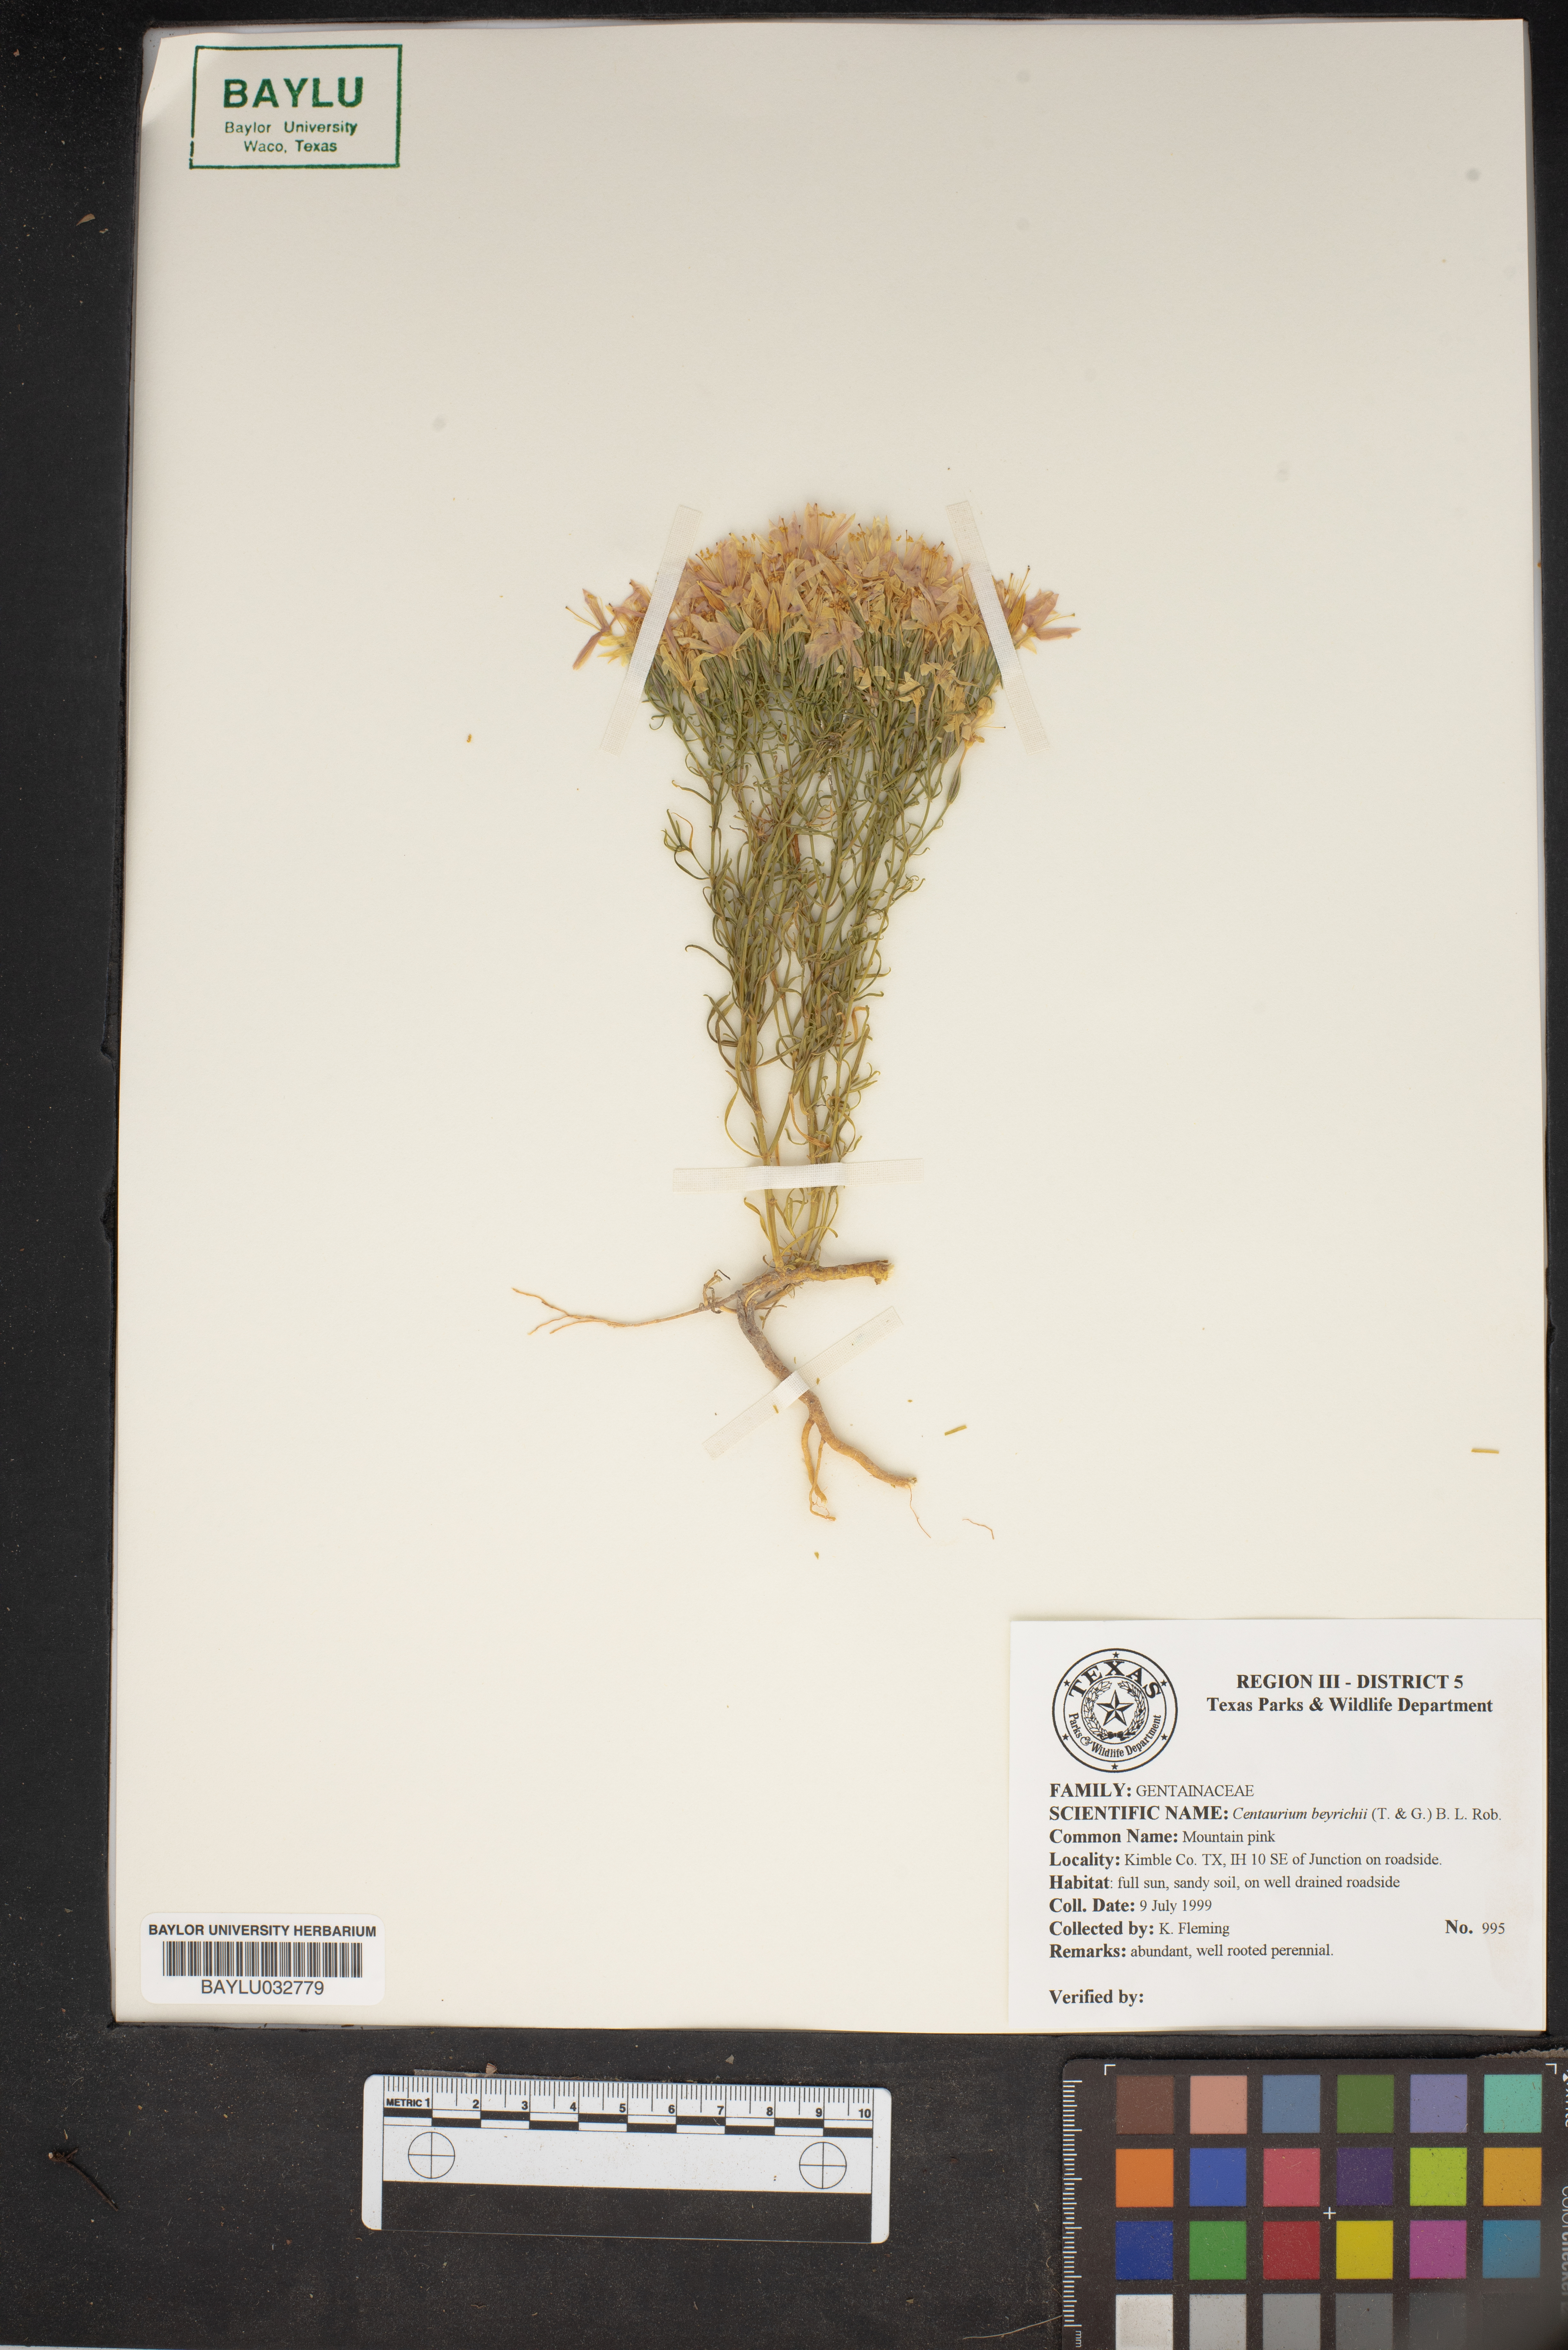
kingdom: Plantae
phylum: Tracheophyta
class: Magnoliopsida
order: Gentianales
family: Gentianaceae
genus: Zeltnera
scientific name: Zeltnera beyrichii
